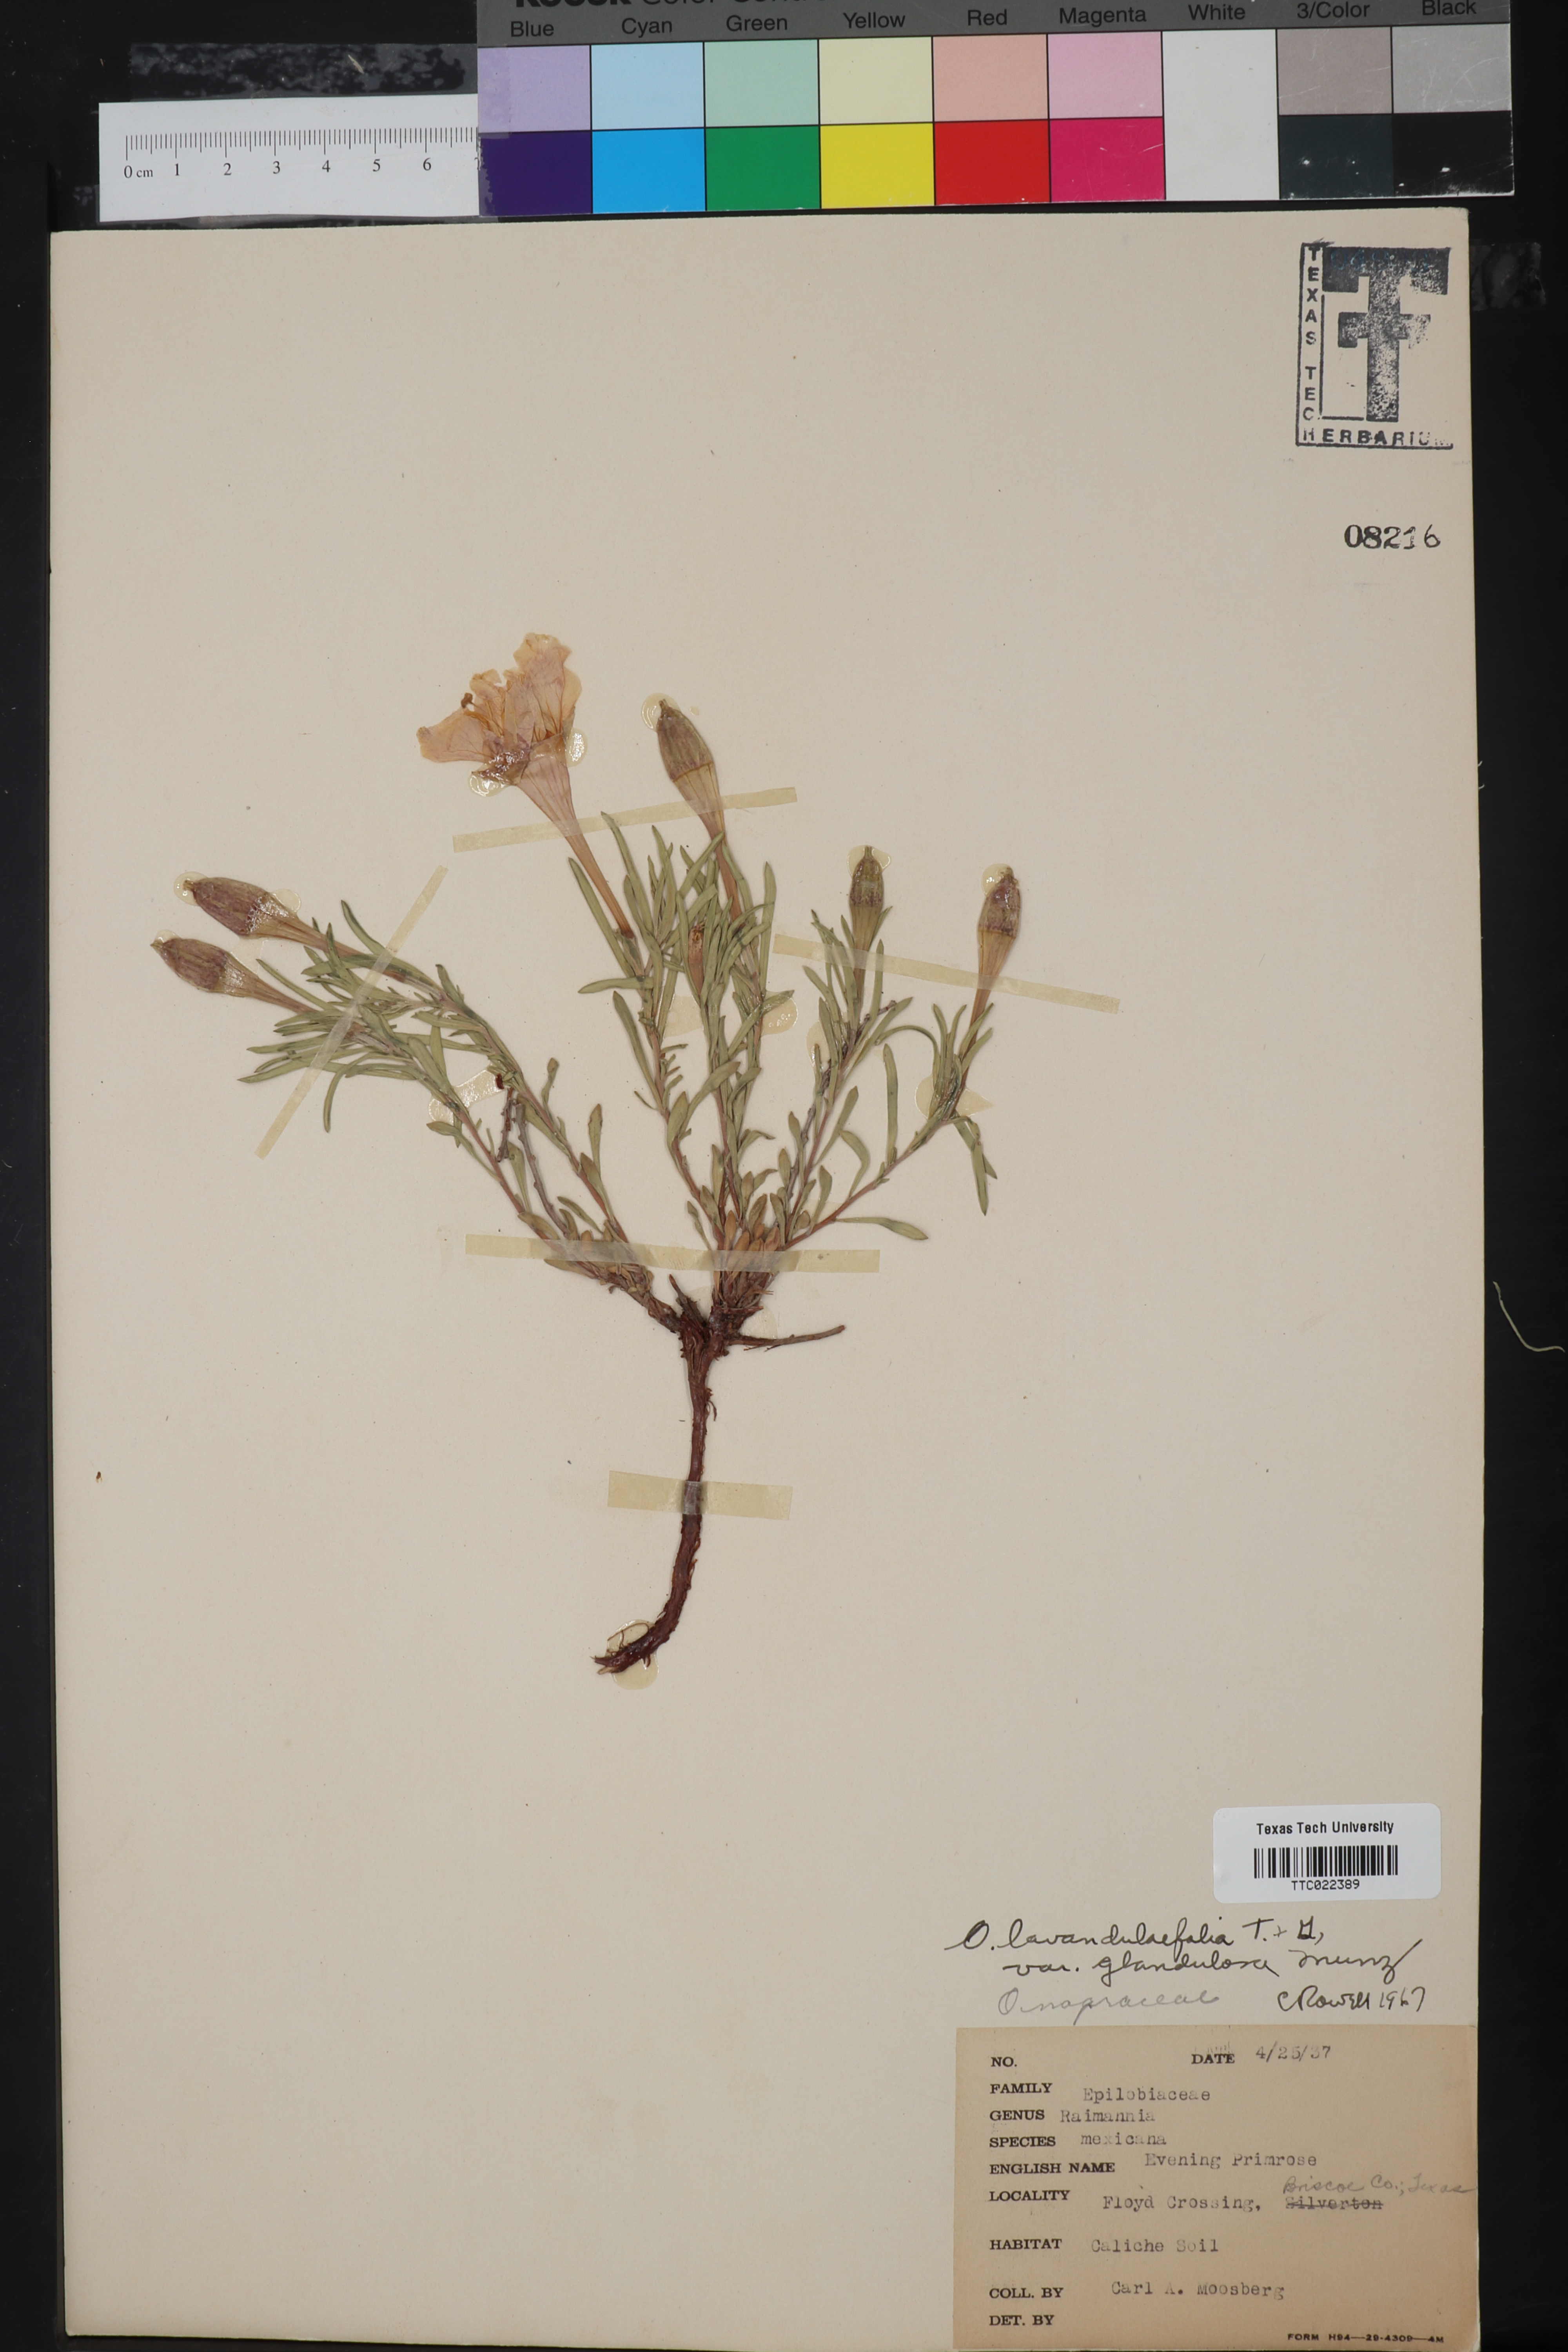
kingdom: Plantae
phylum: Tracheophyta
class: Magnoliopsida
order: Myrtales
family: Onagraceae
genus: Oenothera
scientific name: Oenothera lavandulifolia
